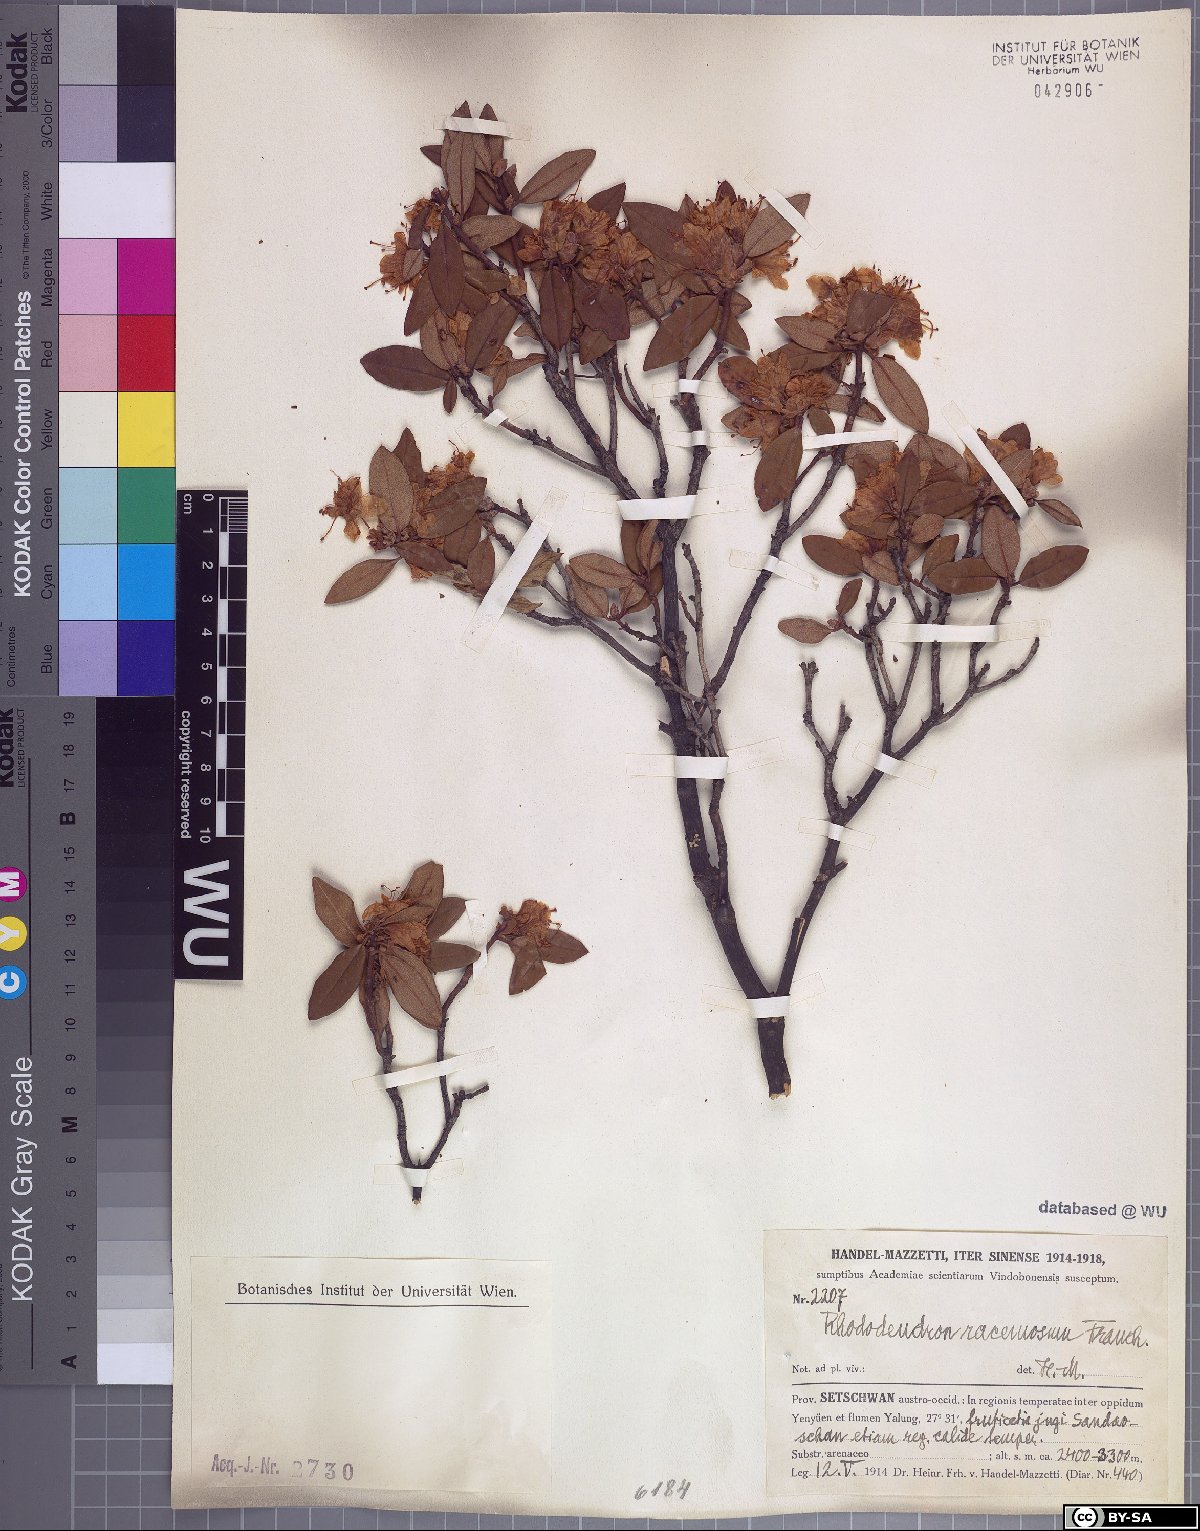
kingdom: Plantae
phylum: Tracheophyta
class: Magnoliopsida
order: Ericales
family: Ericaceae
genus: Rhododendron
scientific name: Rhododendron racemosum
